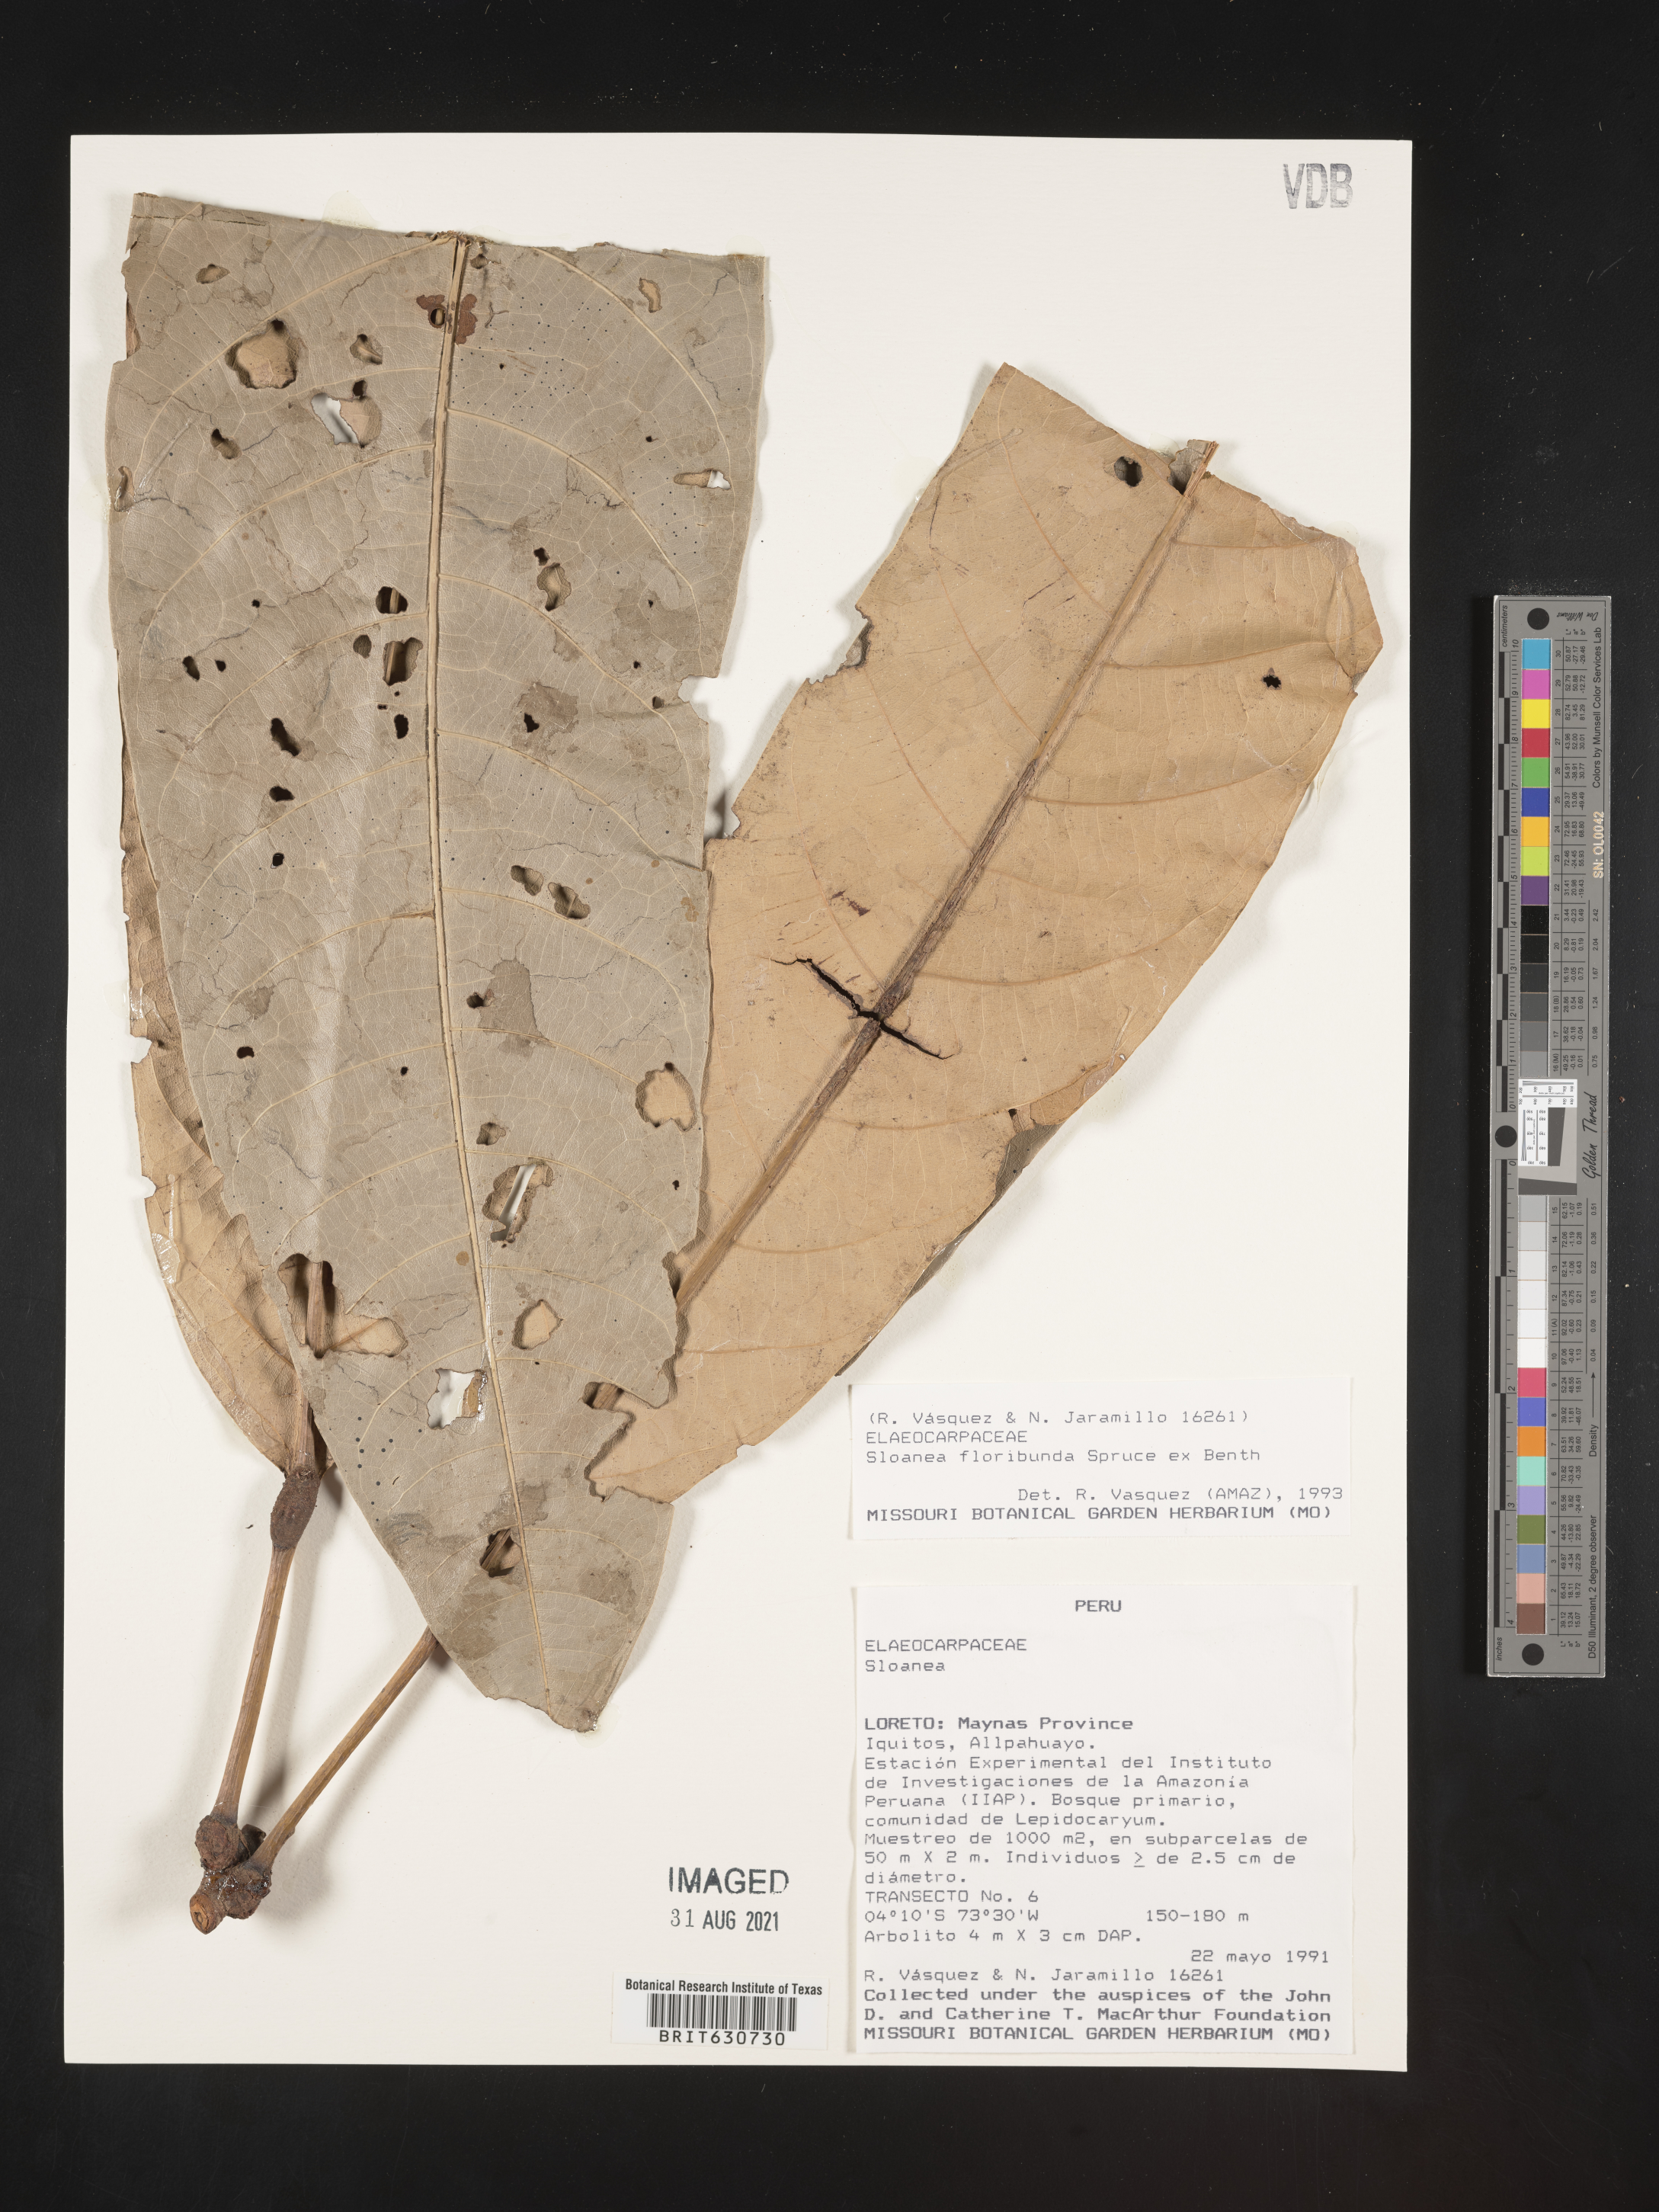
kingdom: Plantae
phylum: Tracheophyta
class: Magnoliopsida
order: Oxalidales
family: Elaeocarpaceae
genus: Sloanea
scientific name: Sloanea
